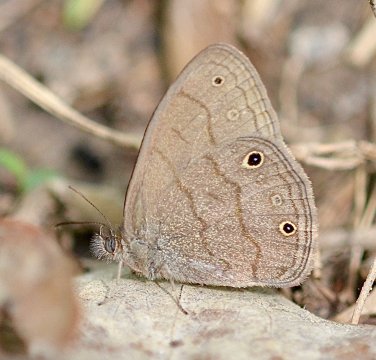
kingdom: Animalia
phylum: Arthropoda
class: Insecta
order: Lepidoptera
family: Nymphalidae
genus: Hermeuptychia
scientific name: Hermeuptychia hermes
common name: Carolina Satyr
